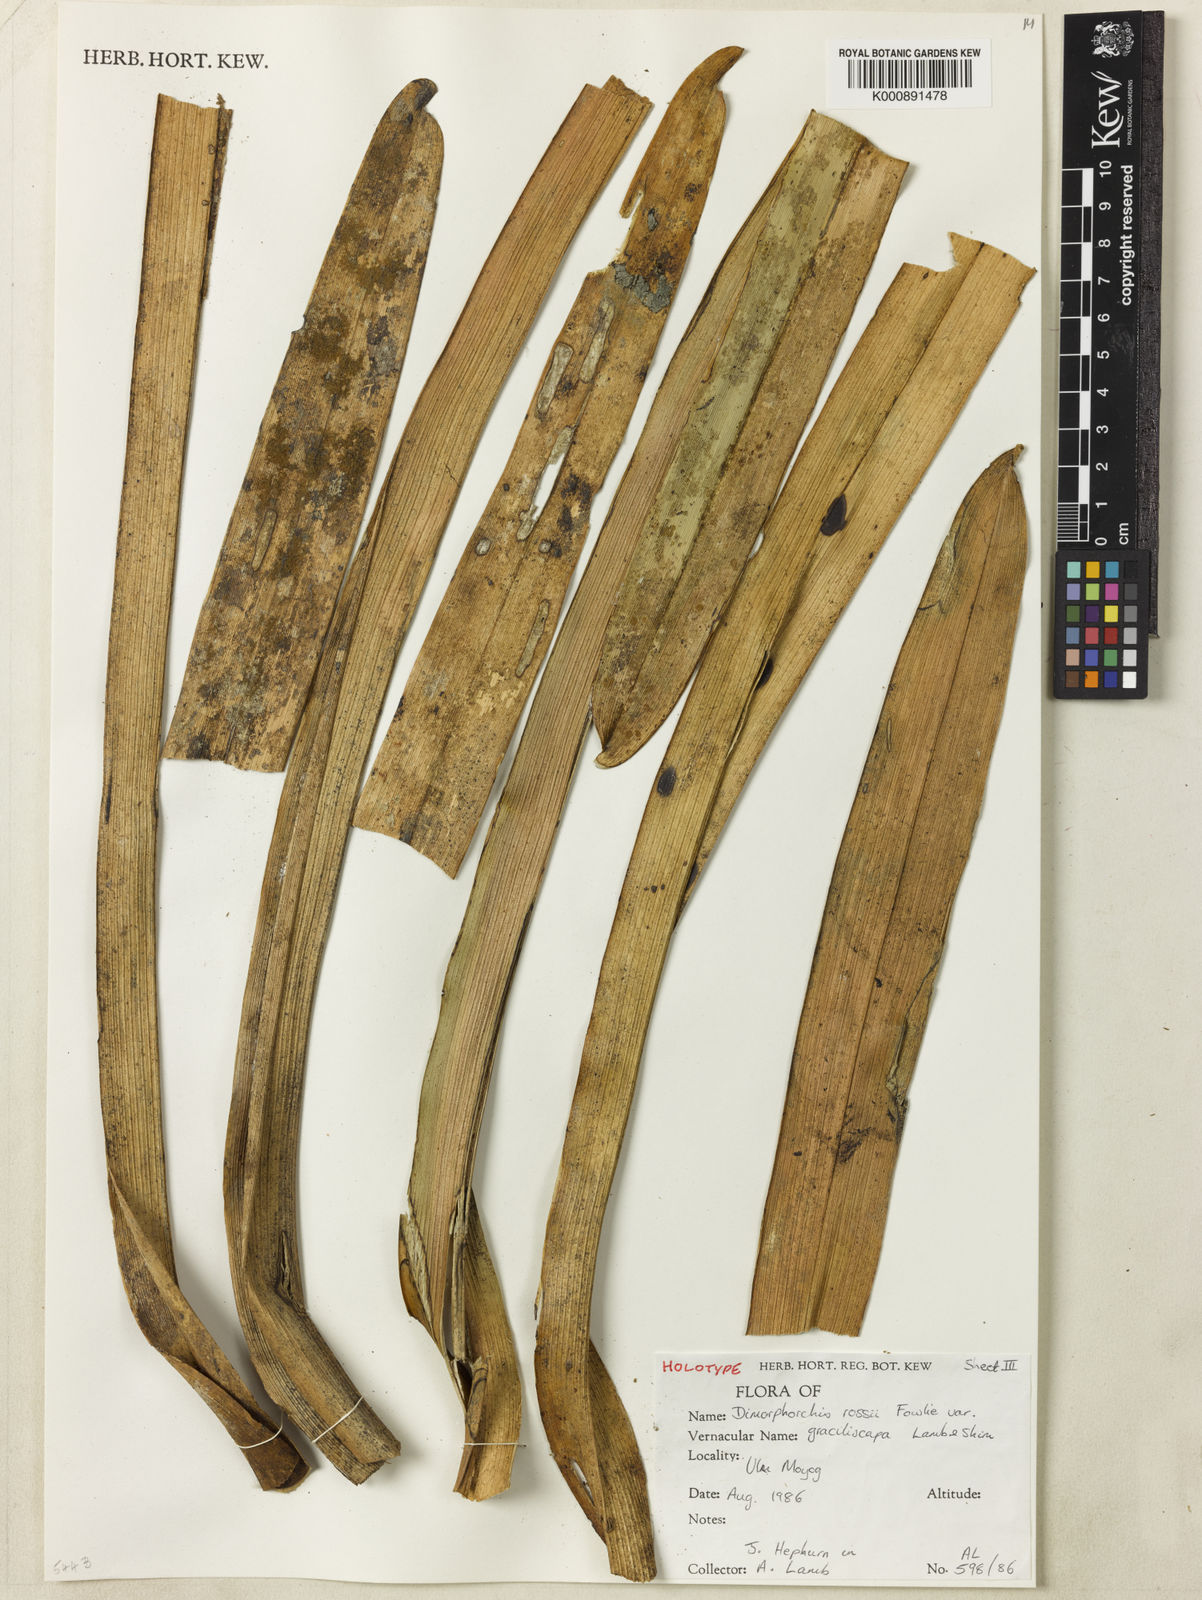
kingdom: Plantae
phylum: Tracheophyta
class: Liliopsida
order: Asparagales
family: Orchidaceae
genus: Dimorphorchis
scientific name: Dimorphorchis graciliscapa
